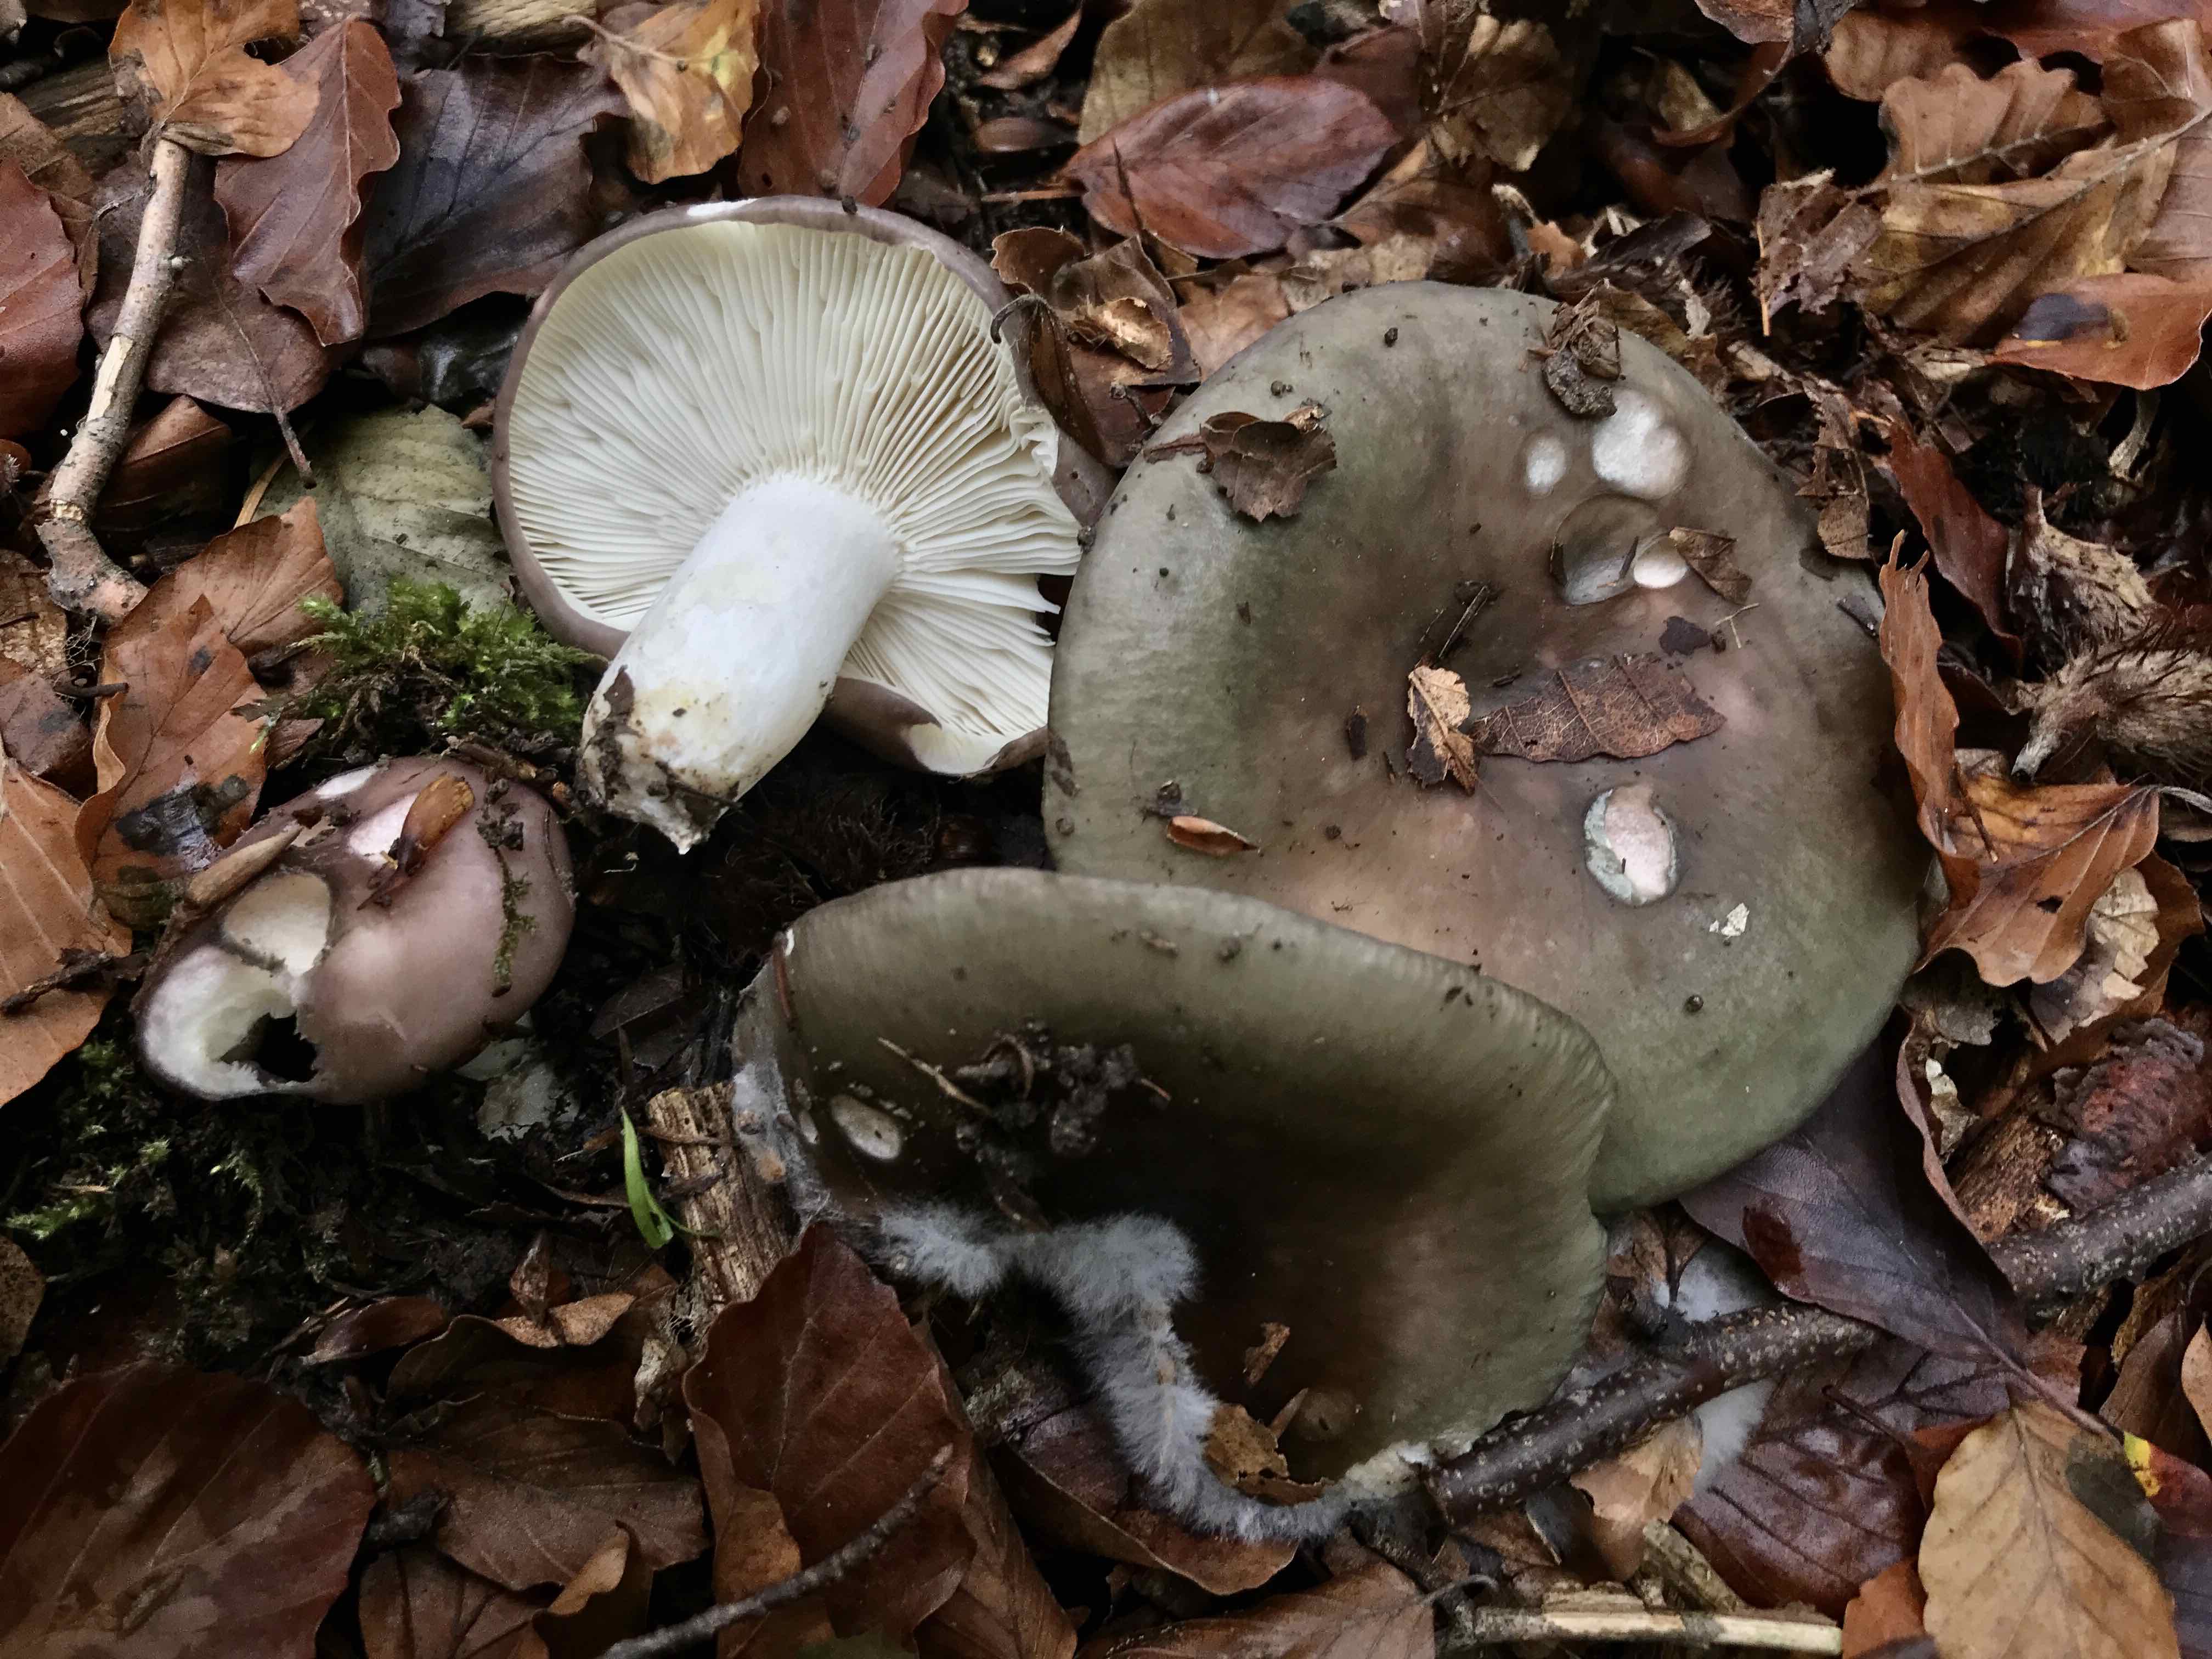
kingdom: Fungi
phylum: Basidiomycota
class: Agaricomycetes
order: Russulales
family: Russulaceae
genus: Russula
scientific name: Russula heterophylla
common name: gaffelbladet skørhat
